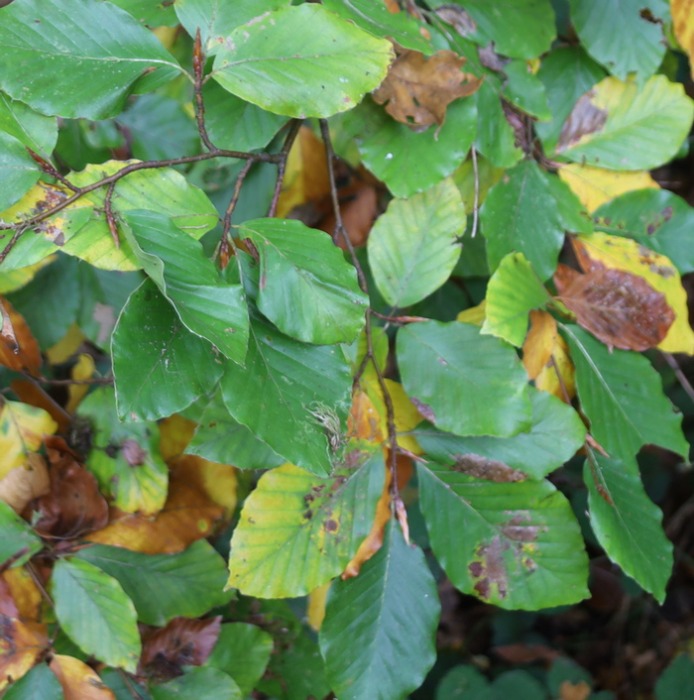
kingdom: Plantae
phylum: Tracheophyta
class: Magnoliopsida
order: Fagales
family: Fagaceae
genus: Fagus
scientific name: Fagus sylvatica
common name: Bøg
